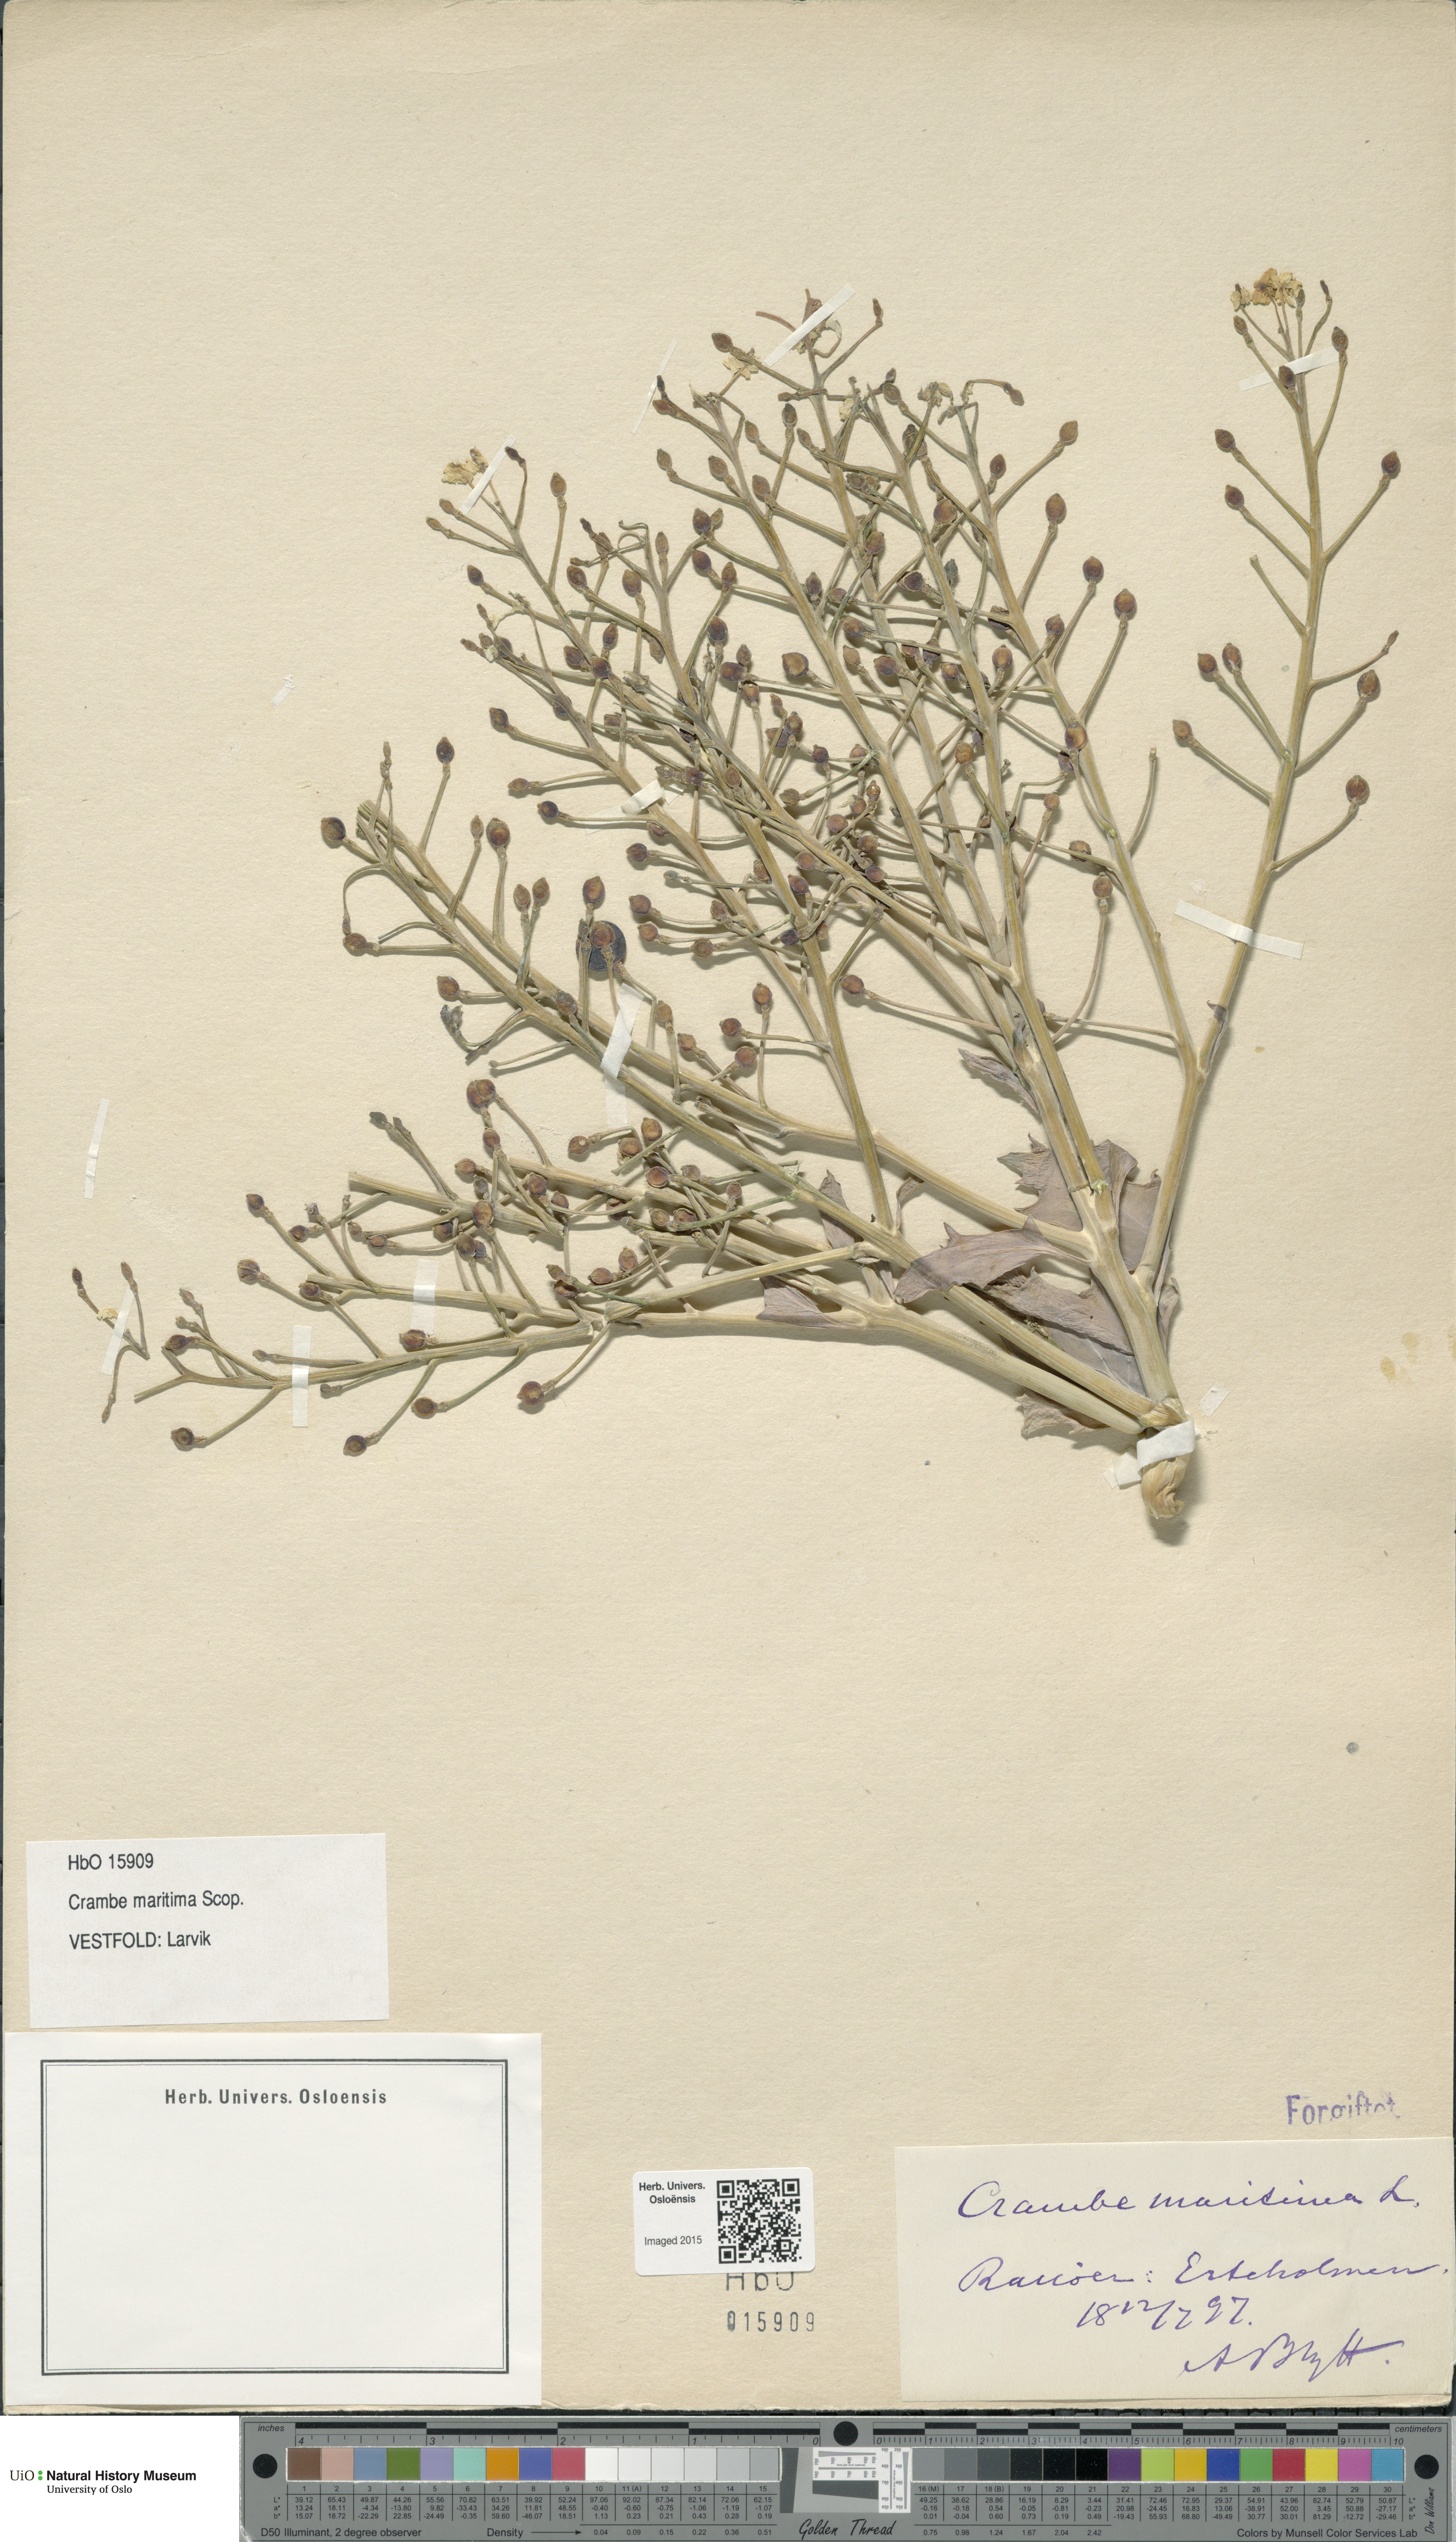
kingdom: Plantae
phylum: Tracheophyta
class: Magnoliopsida
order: Brassicales
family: Brassicaceae
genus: Crambe
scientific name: Crambe maritima
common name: Sea-kale
